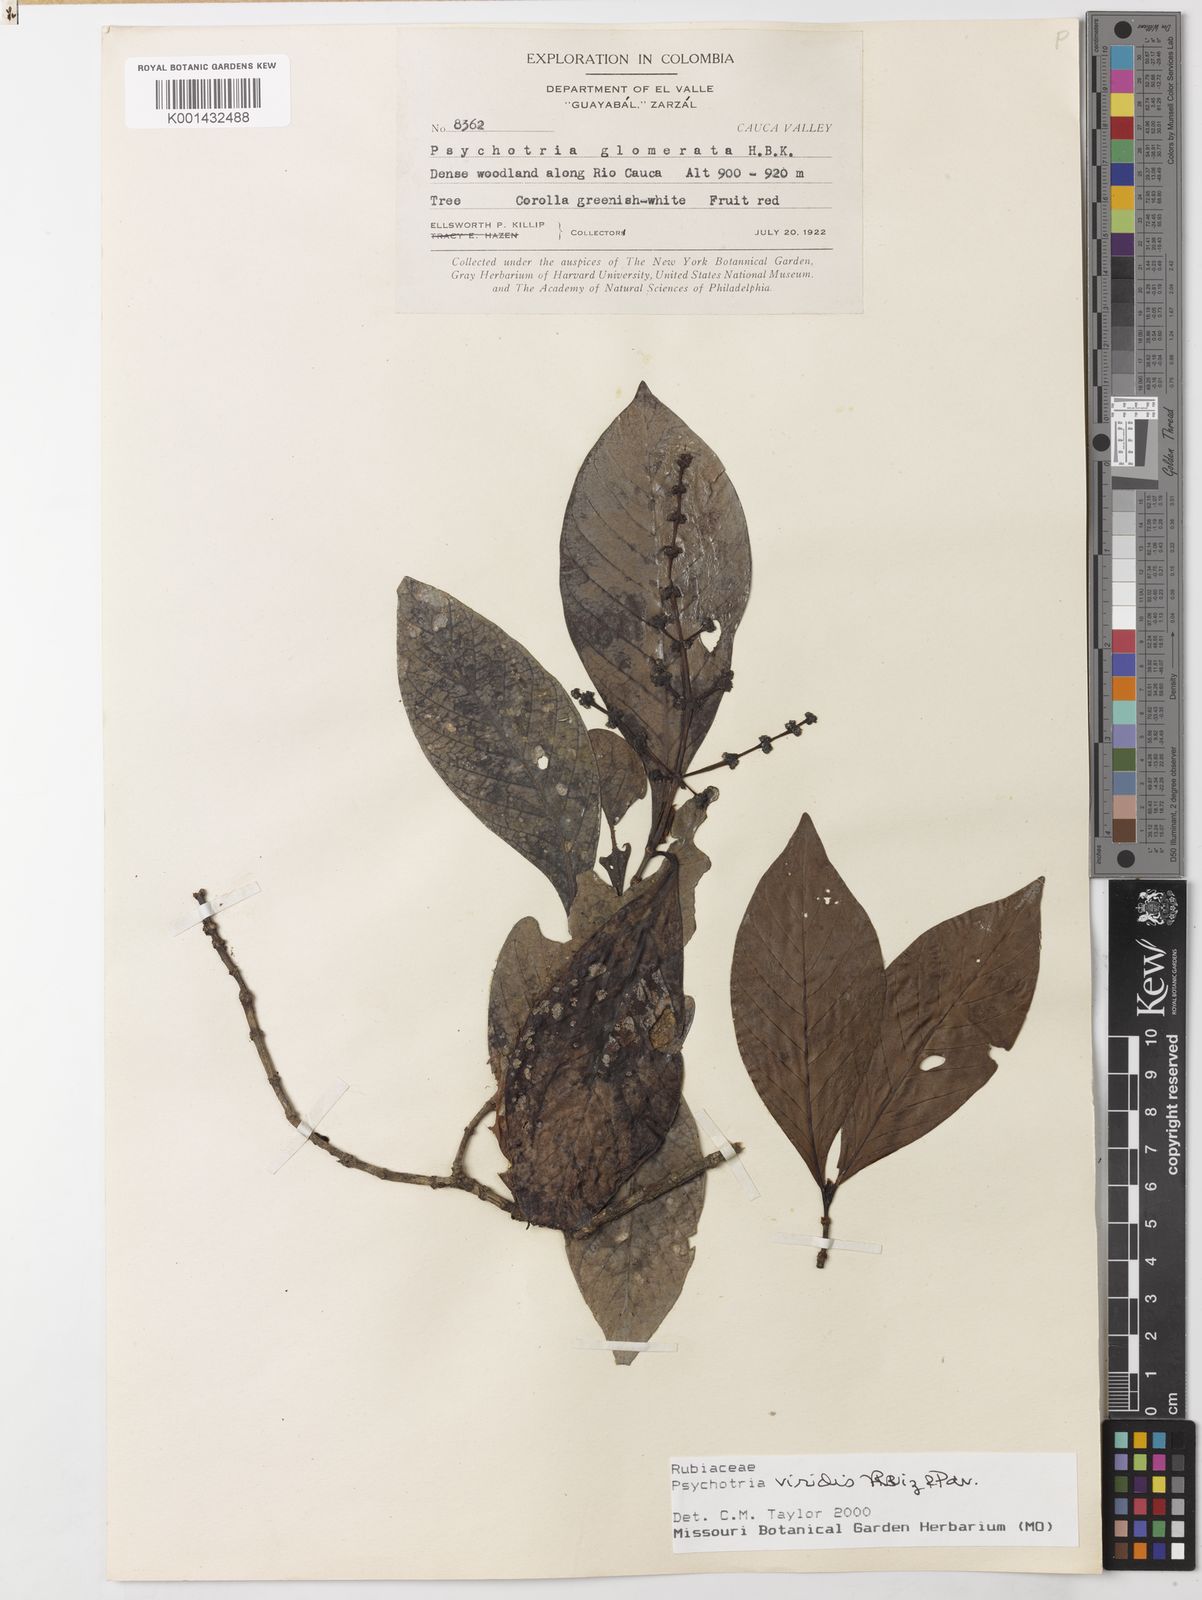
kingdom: Plantae
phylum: Tracheophyta
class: Magnoliopsida
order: Gentianales
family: Rubiaceae
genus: Psychotria
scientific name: Psychotria viridis
